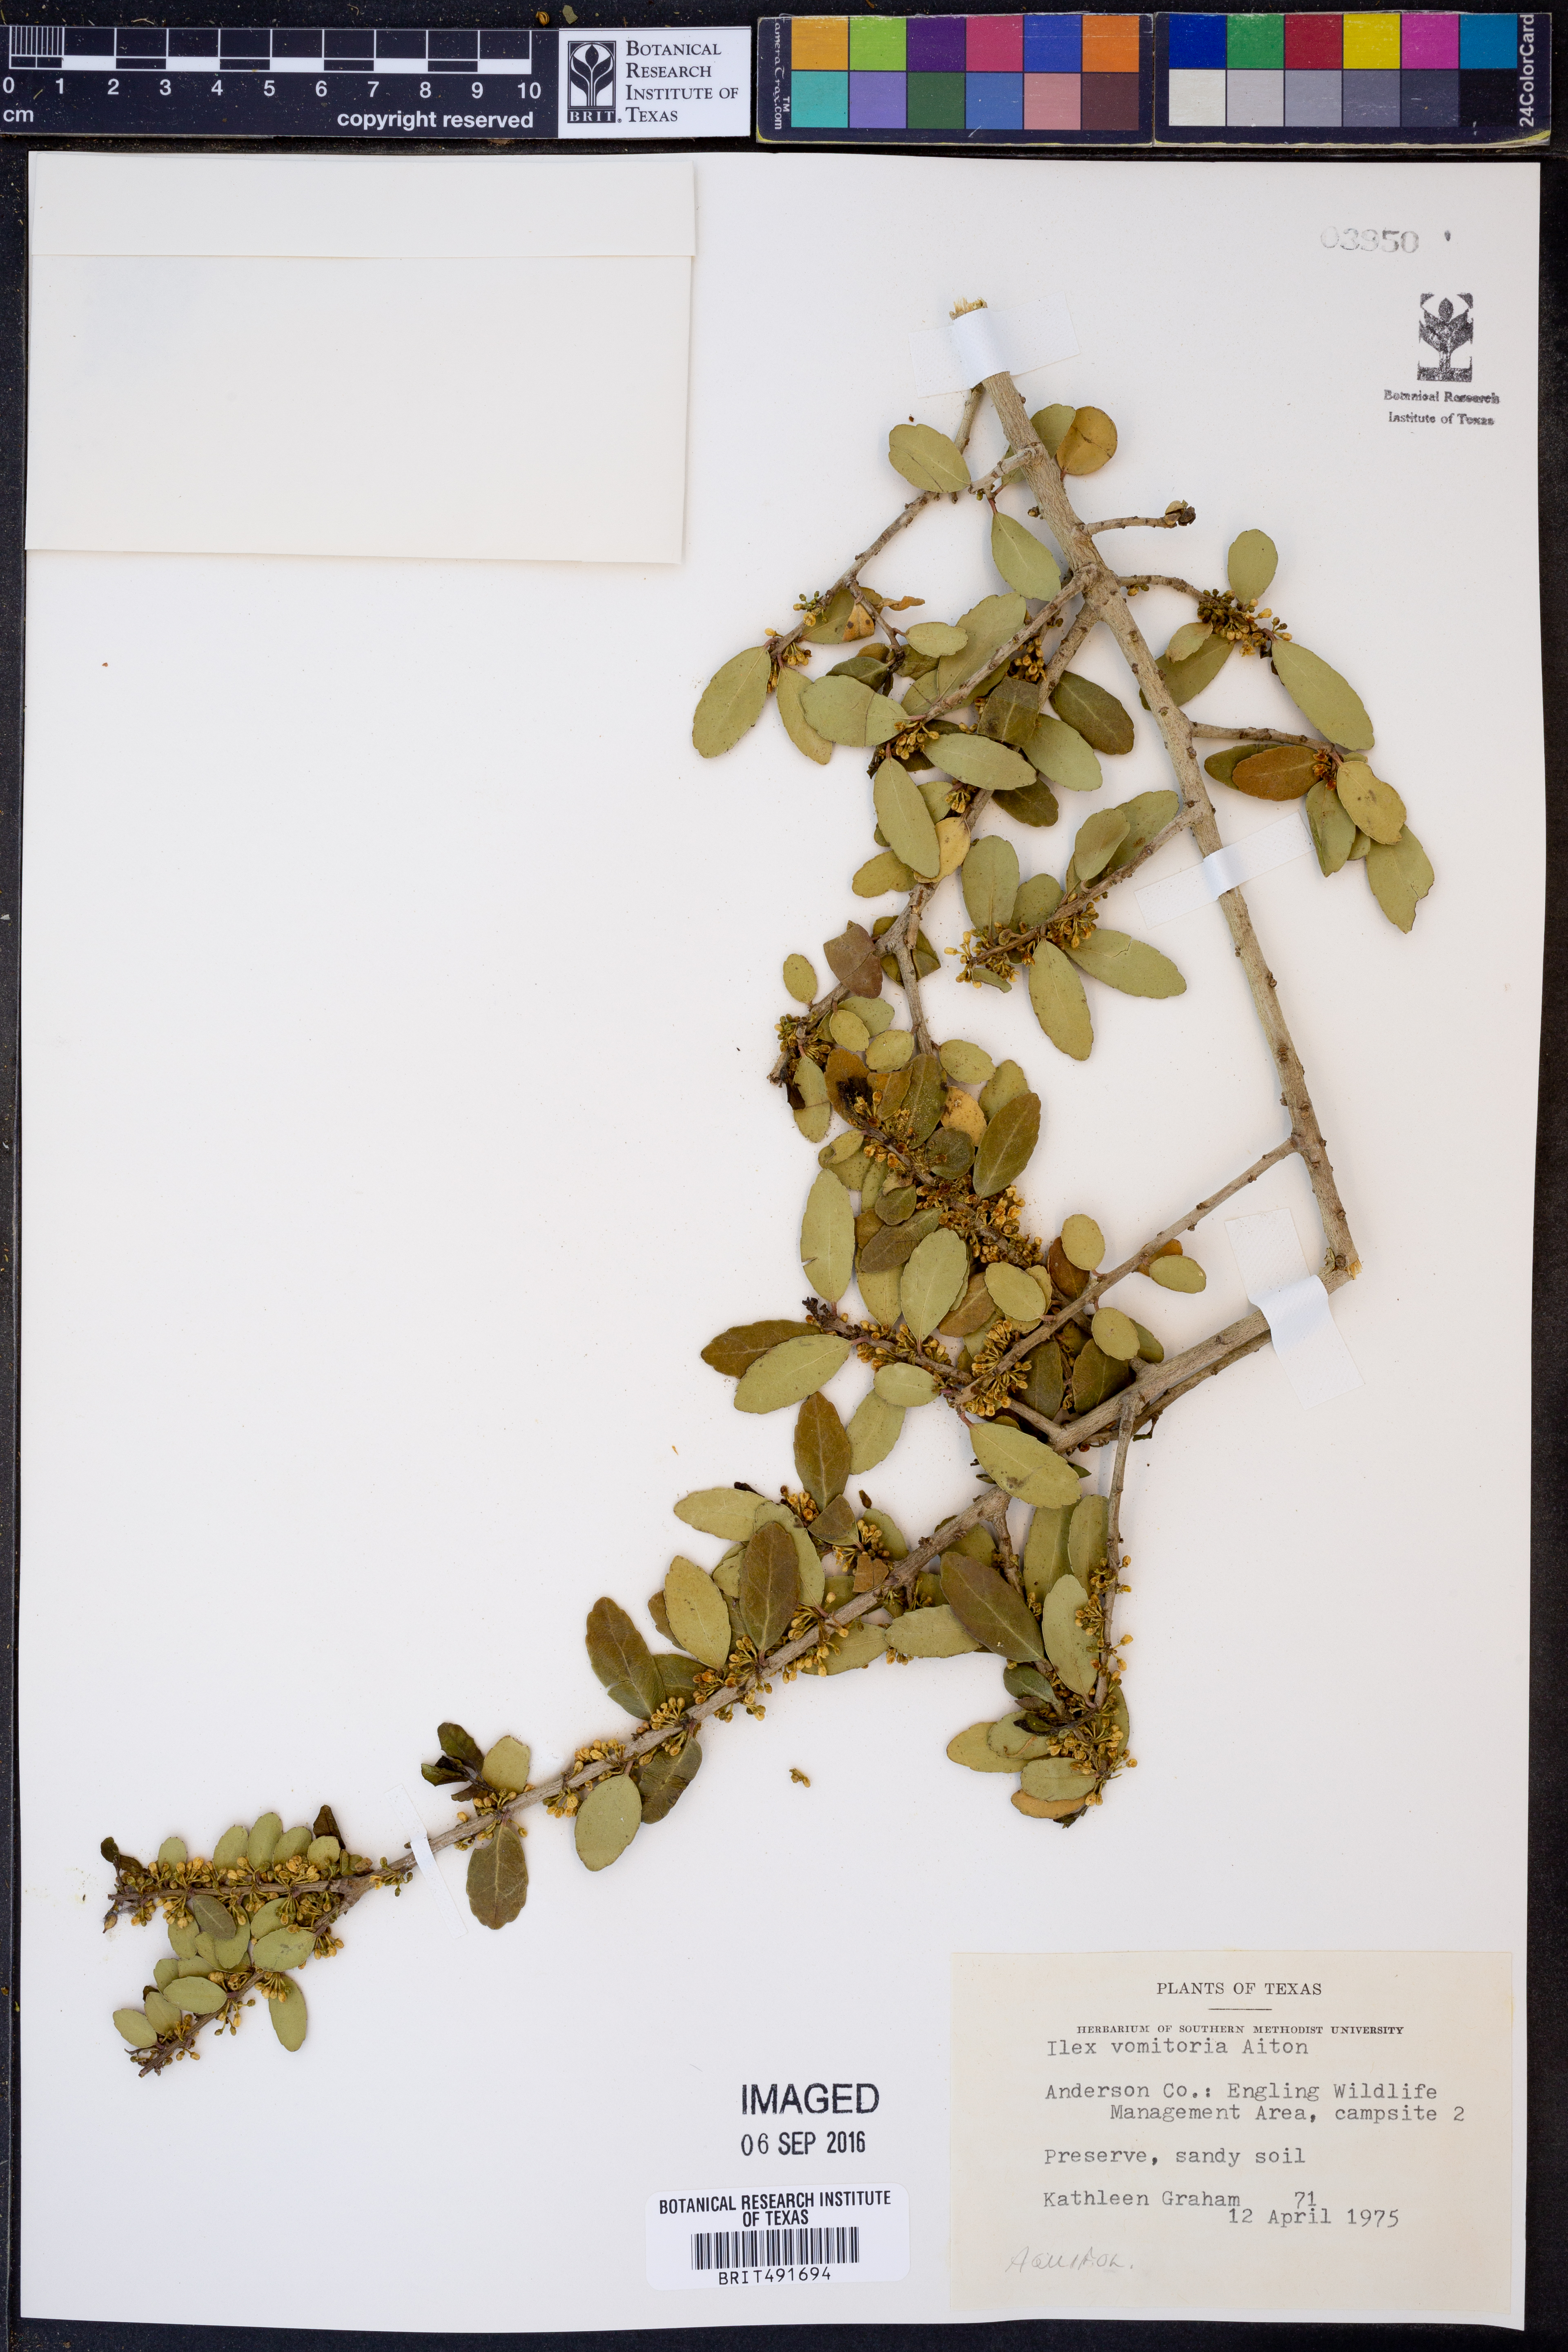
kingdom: Plantae
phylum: Tracheophyta
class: Magnoliopsida
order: Aquifoliales
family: Aquifoliaceae
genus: Ilex
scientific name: Ilex vomitoria
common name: Yaupon holly
